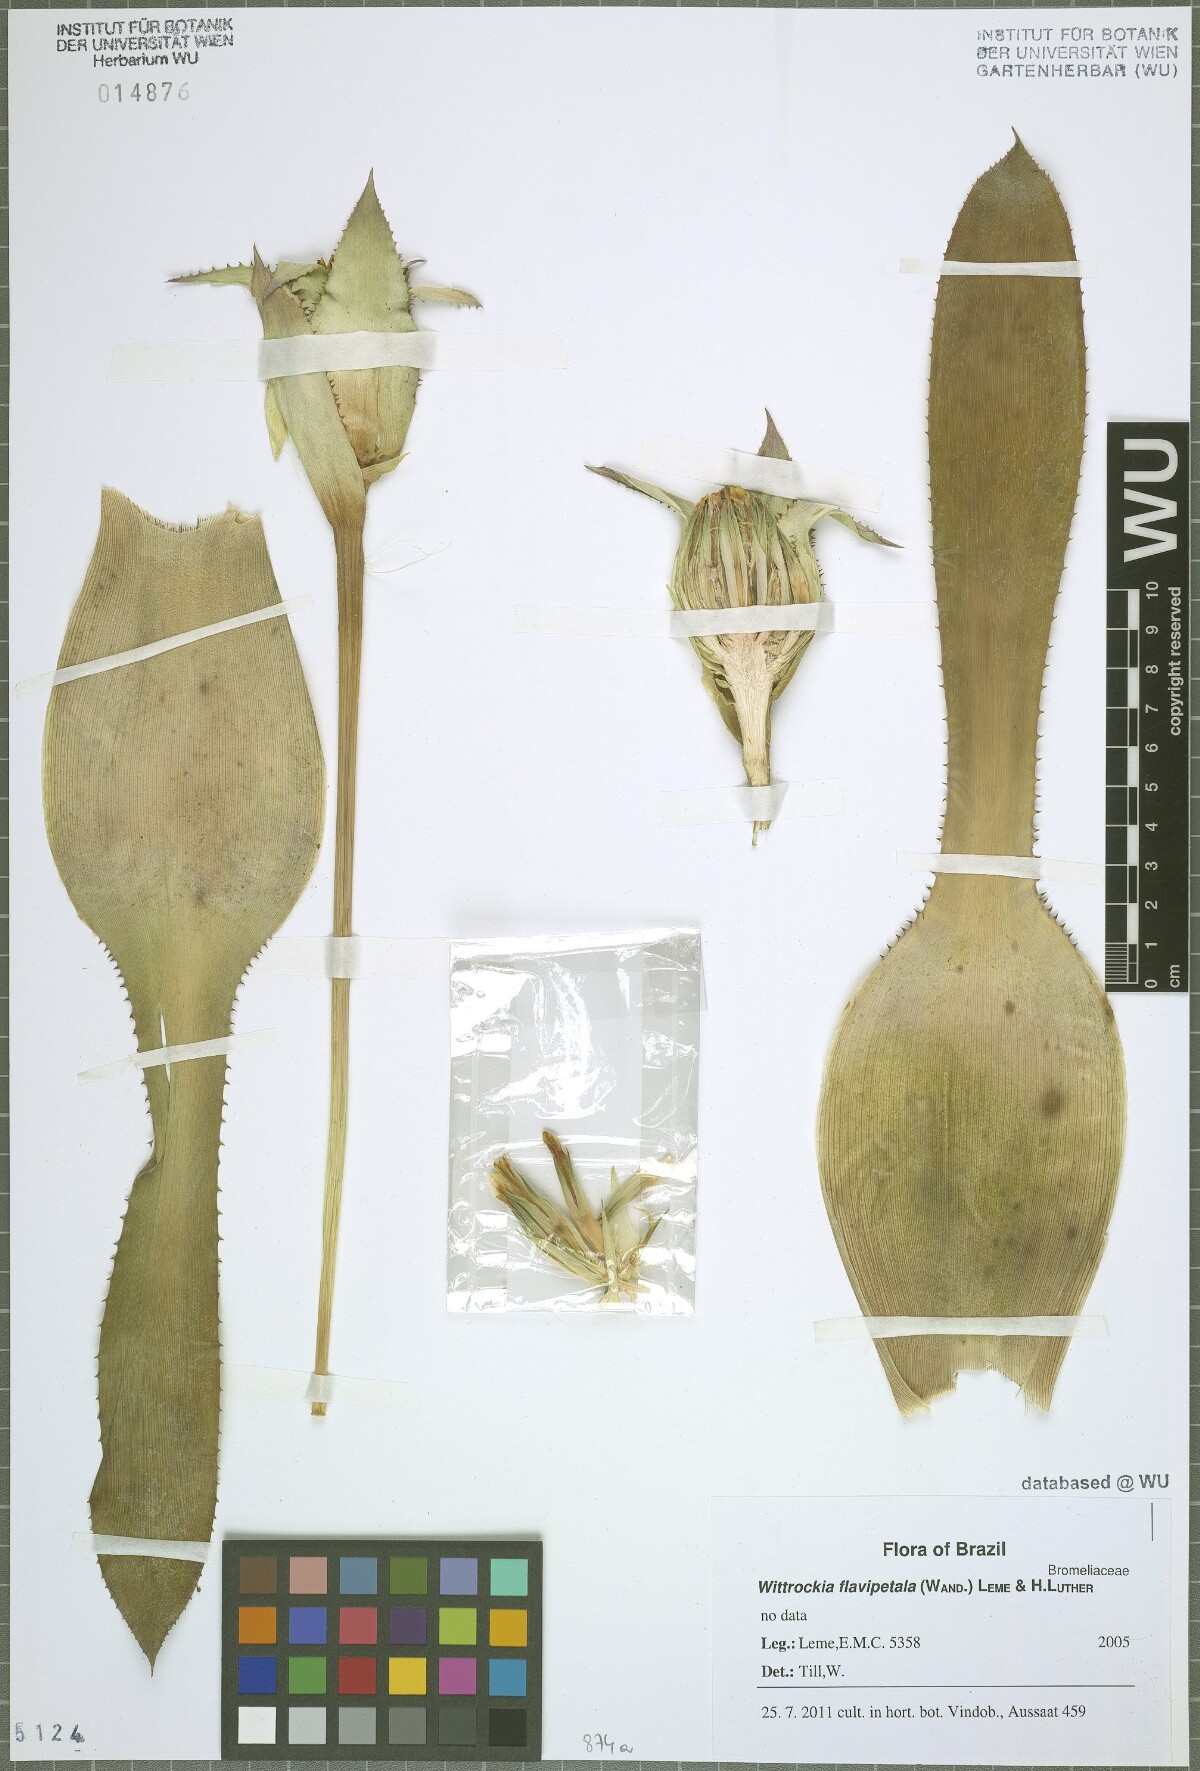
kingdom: Plantae
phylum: Tracheophyta
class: Liliopsida
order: Poales
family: Bromeliaceae
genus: Wittrockia
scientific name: Wittrockia flavipetala
